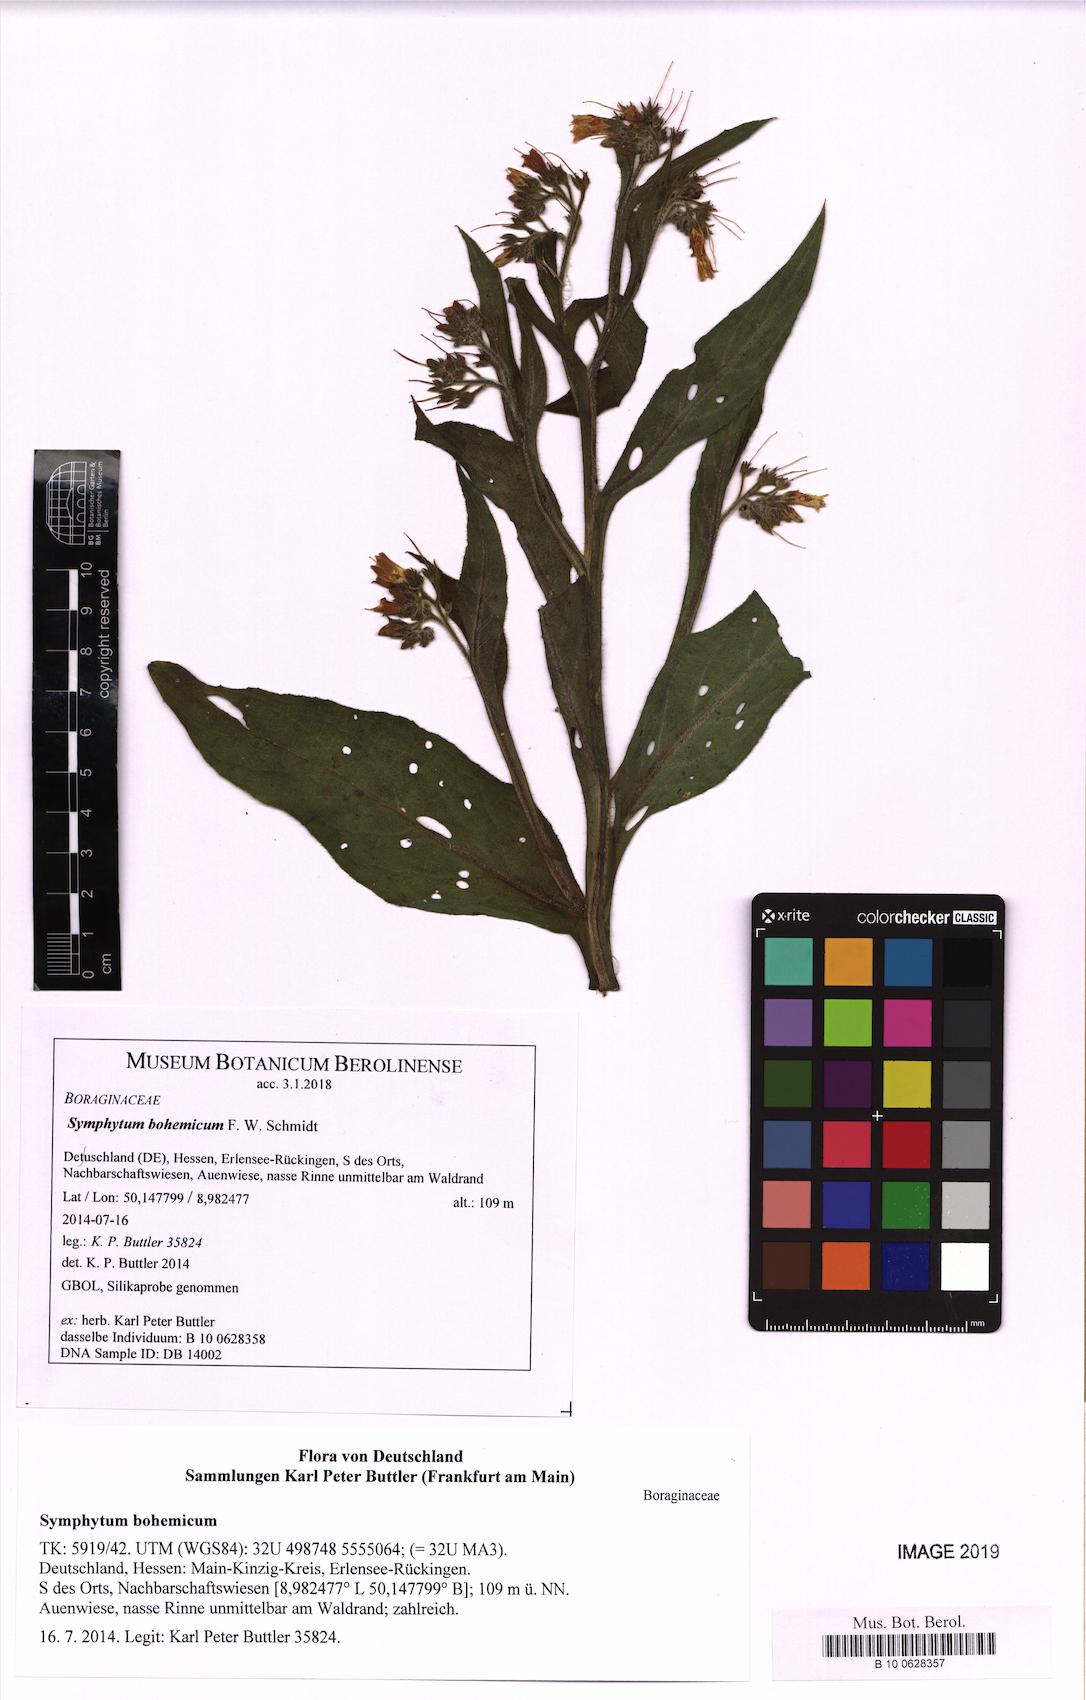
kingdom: Plantae
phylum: Tracheophyta
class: Magnoliopsida
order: Boraginales
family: Boraginaceae
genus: Symphytum
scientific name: Symphytum bohemicum
